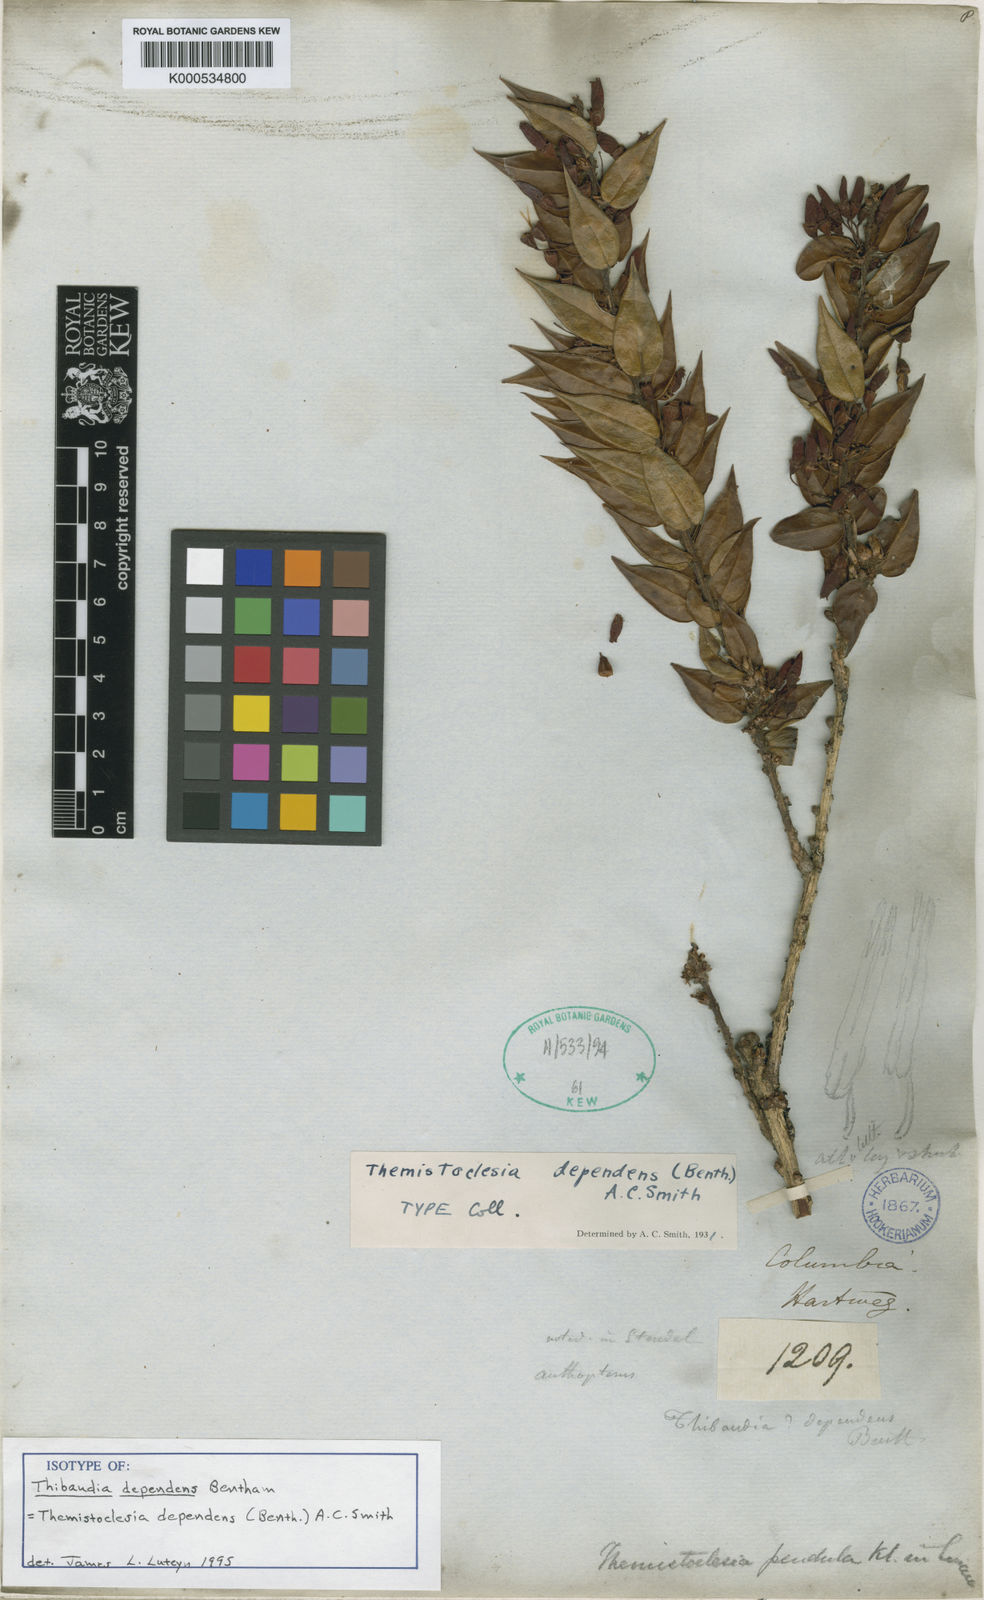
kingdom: Plantae
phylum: Tracheophyta
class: Magnoliopsida
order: Ericales
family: Ericaceae
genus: Themistoclesia
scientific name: Themistoclesia dependens
